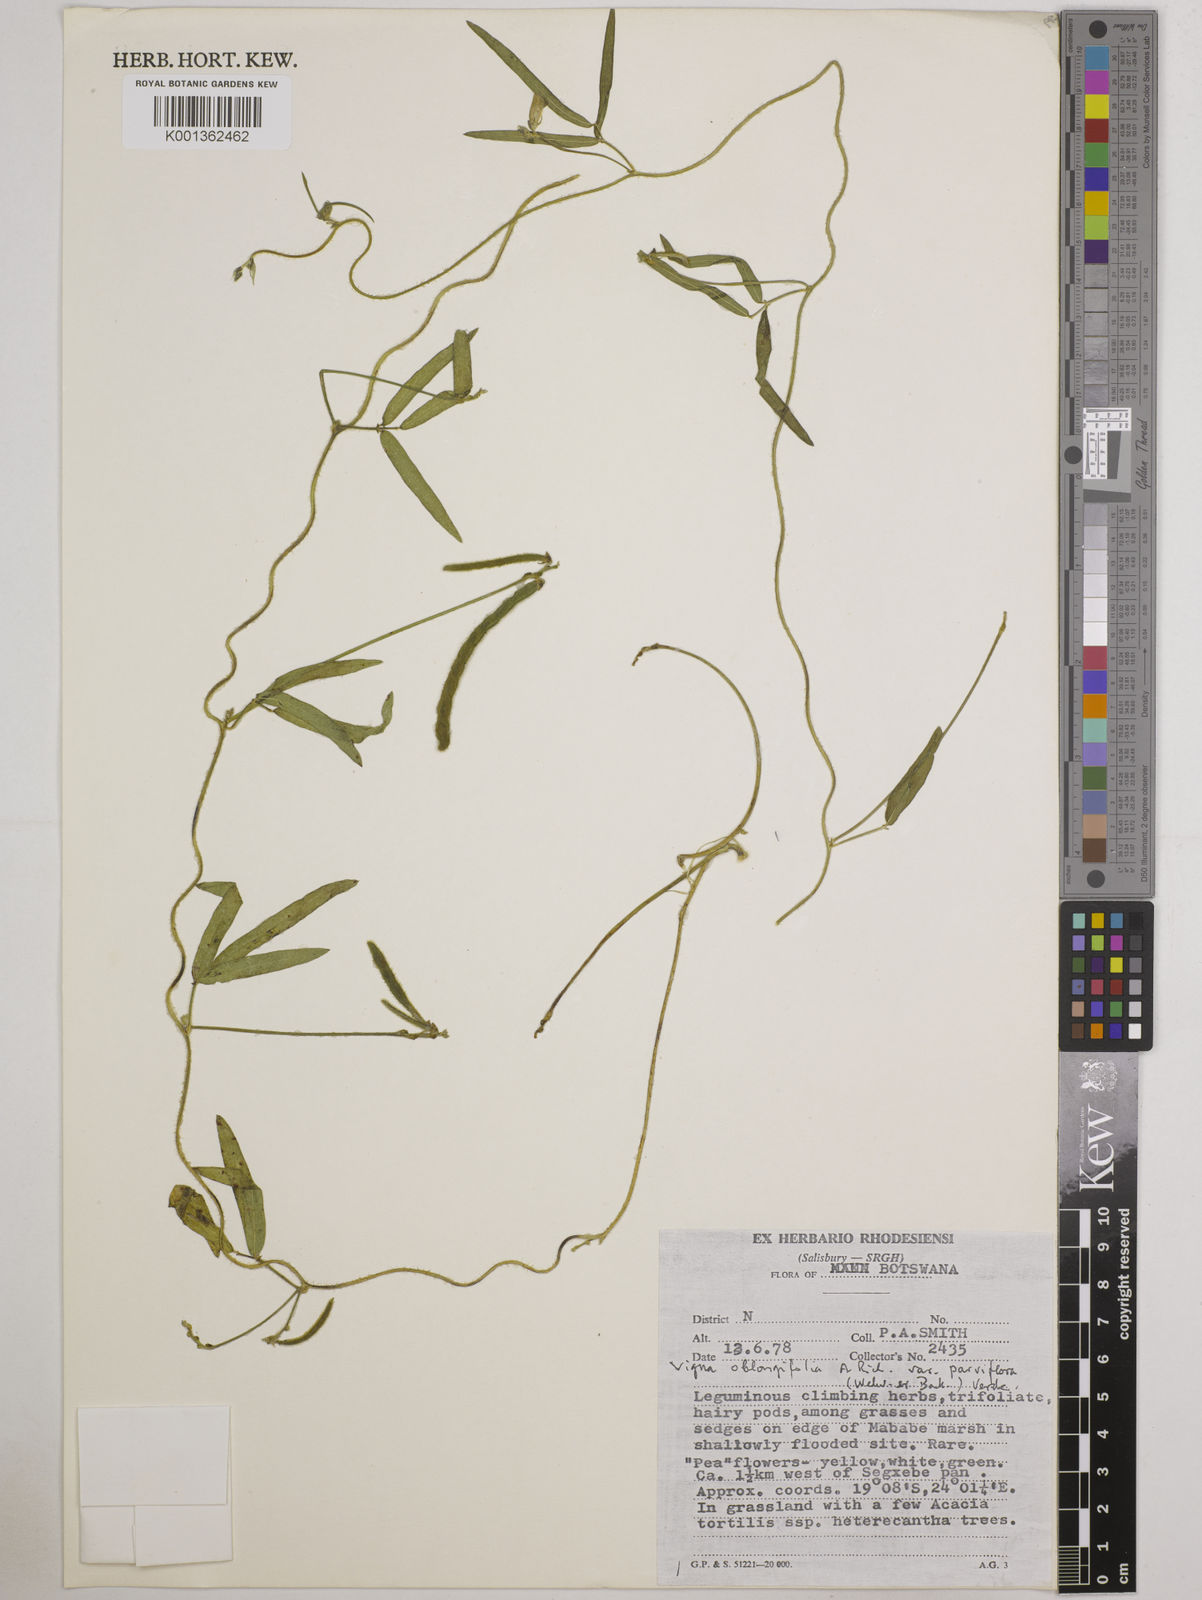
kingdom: Plantae
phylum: Tracheophyta
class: Magnoliopsida
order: Fabales
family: Fabaceae
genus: Vigna
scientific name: Vigna
